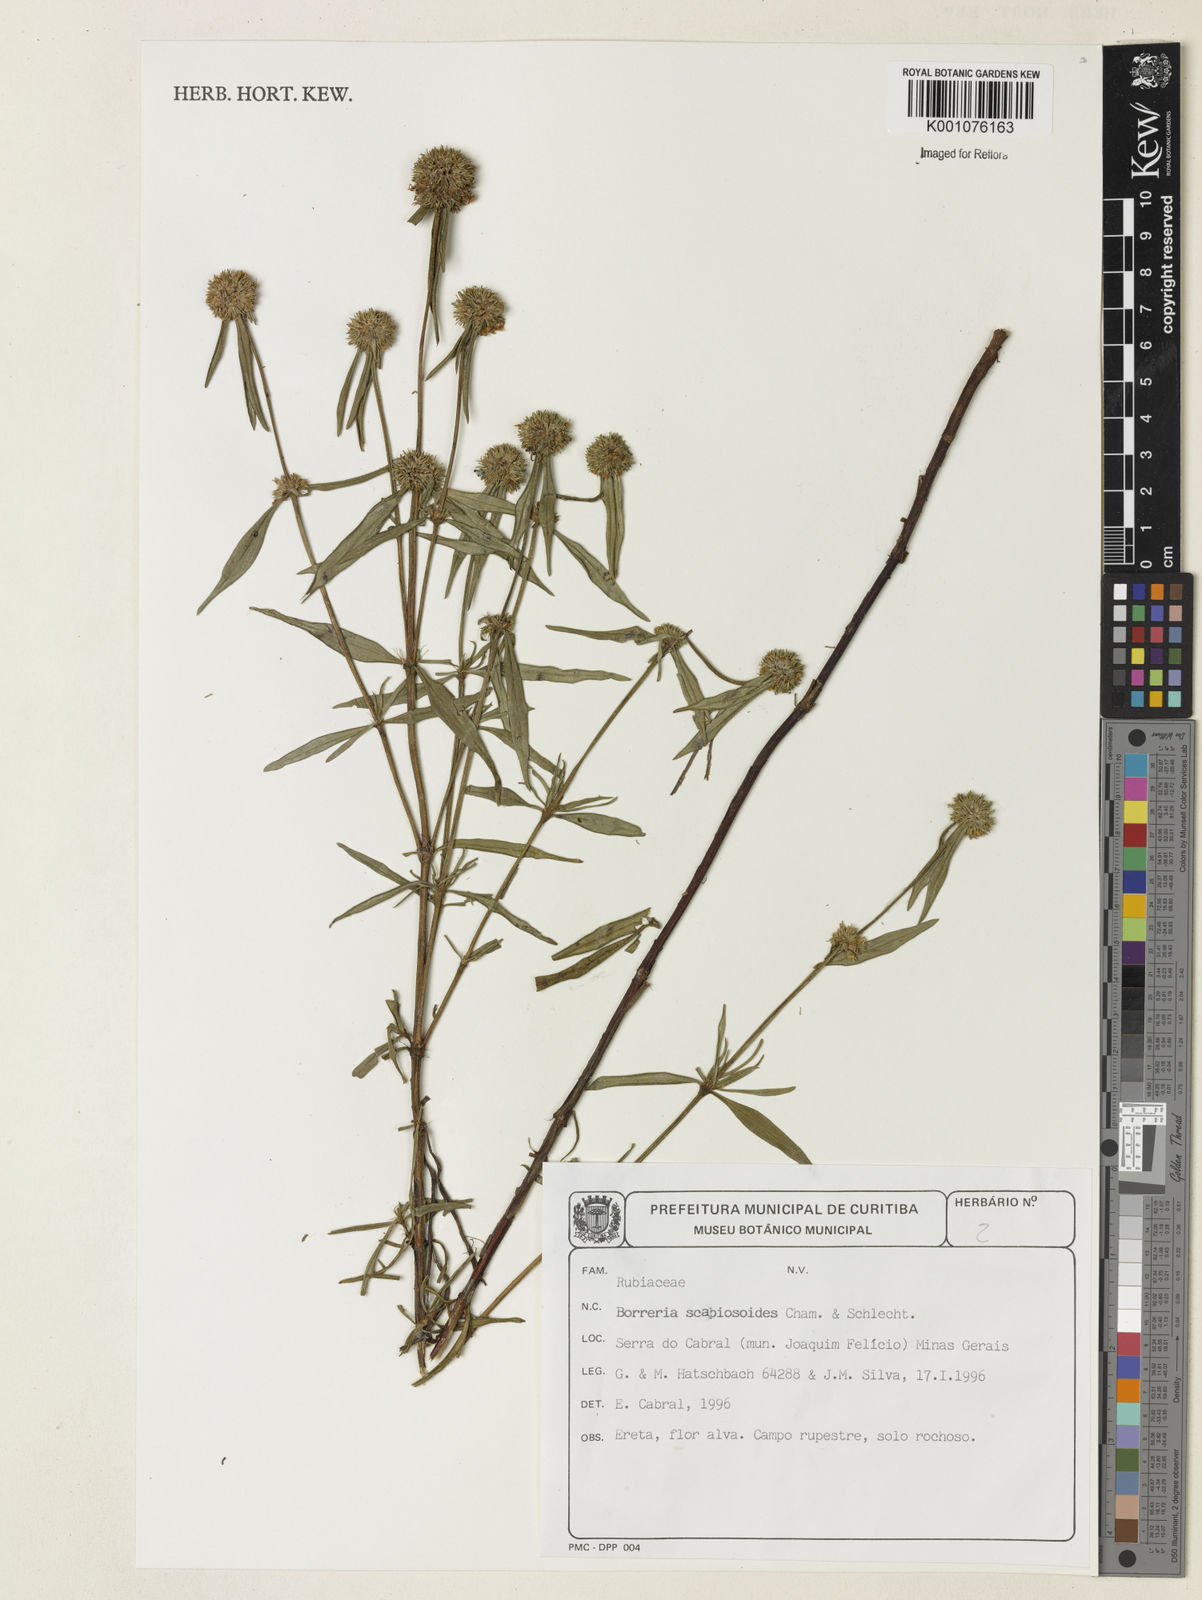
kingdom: Plantae
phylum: Tracheophyta
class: Magnoliopsida
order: Gentianales
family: Rubiaceae
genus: Spermacoce
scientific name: Spermacoce scabiosoides
